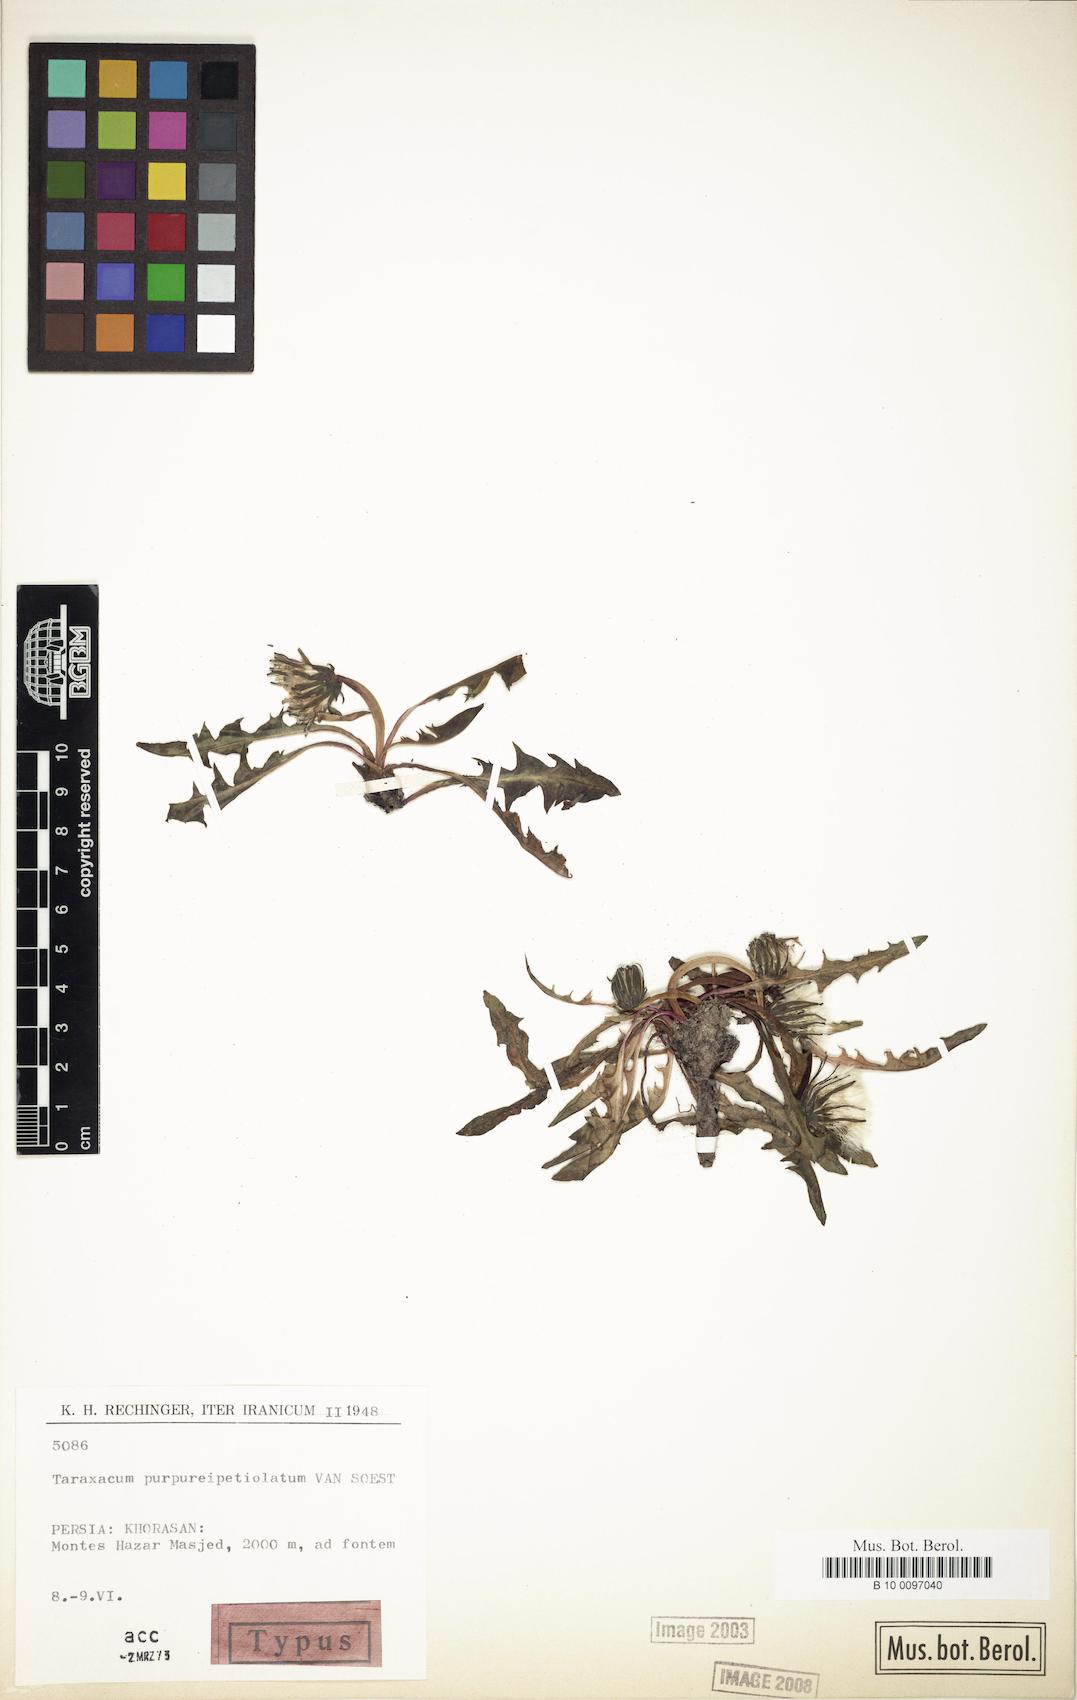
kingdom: Plantae
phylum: Tracheophyta
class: Magnoliopsida
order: Asterales
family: Asteraceae
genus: Taraxacum
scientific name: Taraxacum purpureipetiolatum
